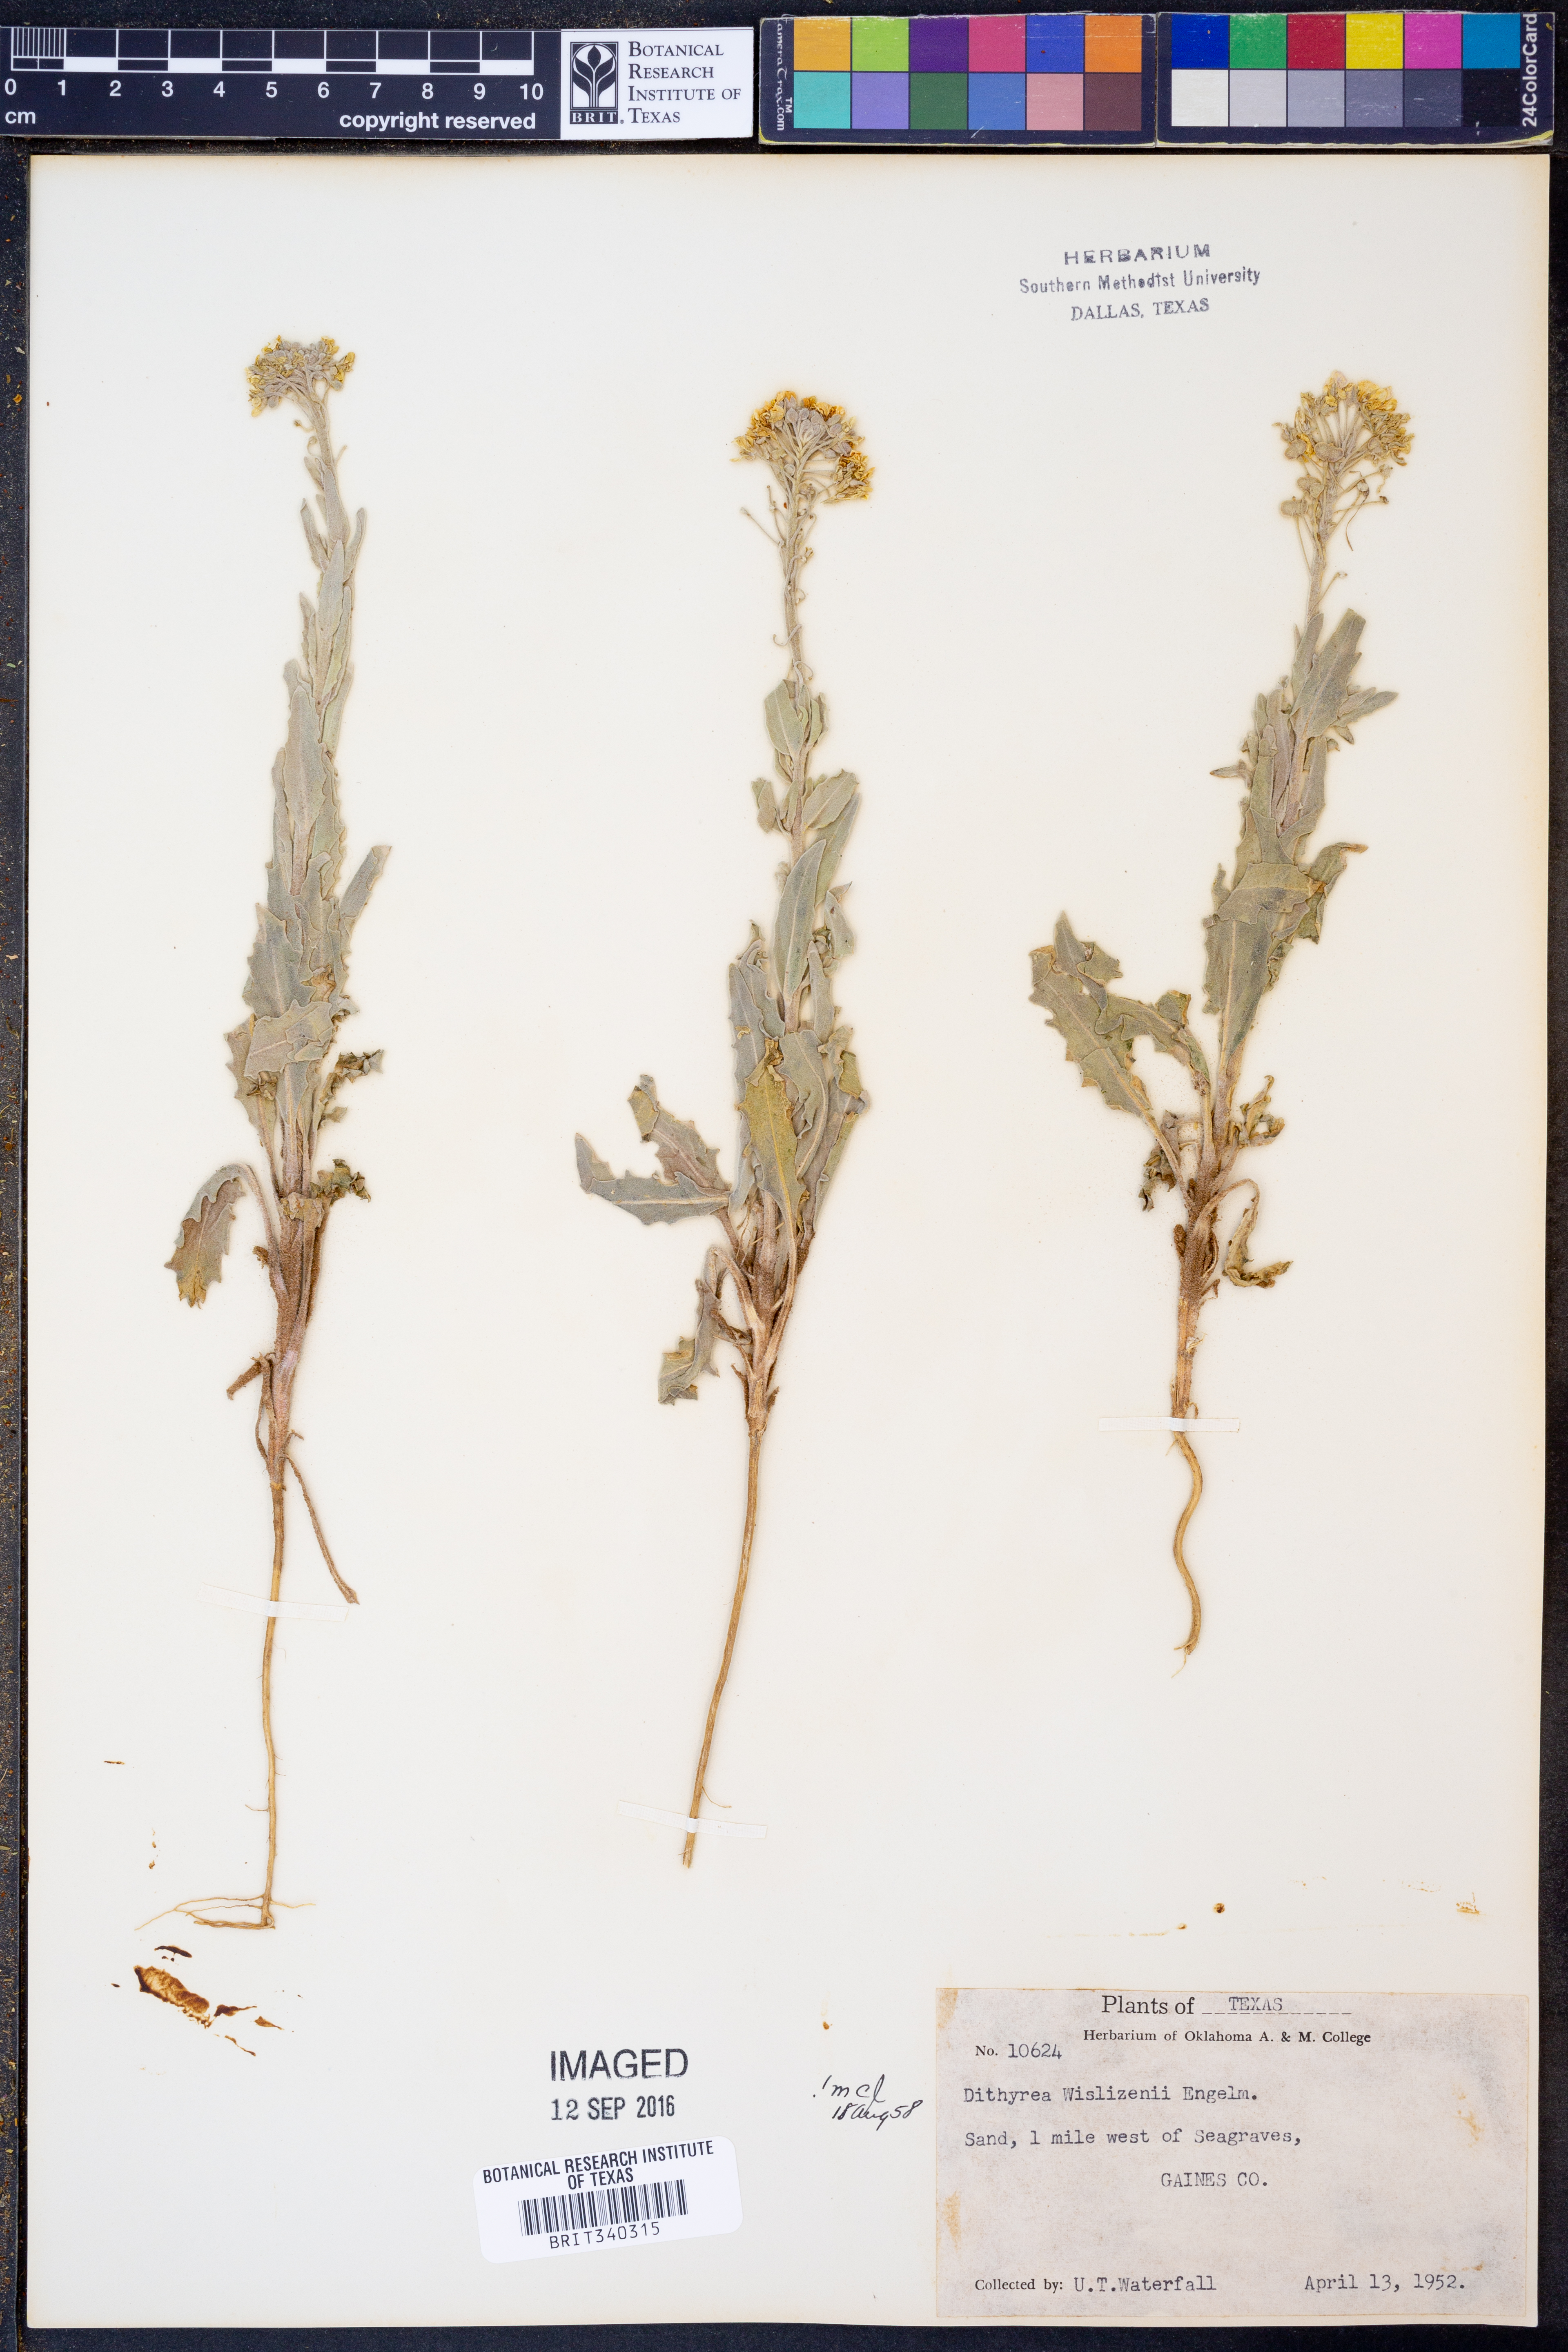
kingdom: Plantae
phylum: Tracheophyta
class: Magnoliopsida
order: Brassicales
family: Brassicaceae
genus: Dimorphocarpa
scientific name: Dimorphocarpa wislizenii
